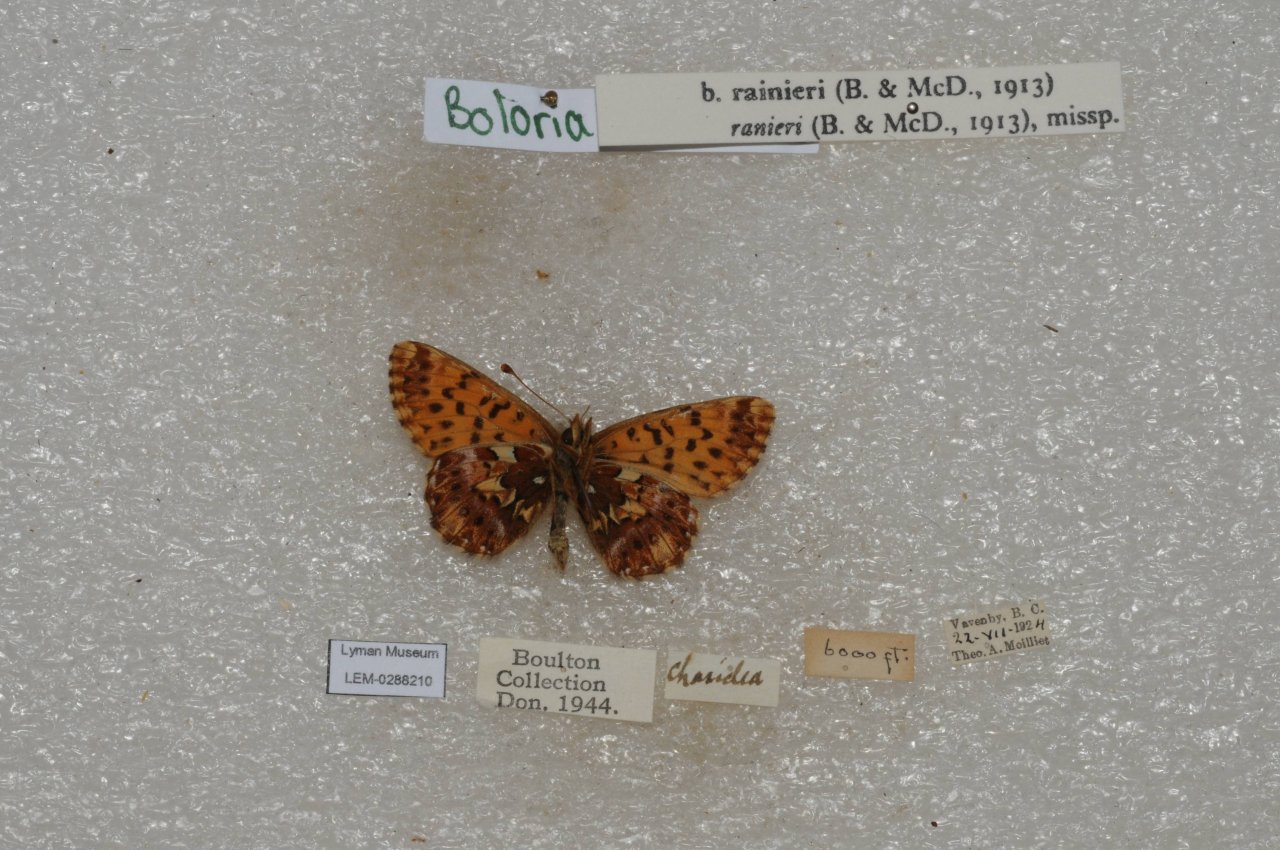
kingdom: Animalia
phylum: Arthropoda
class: Insecta
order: Lepidoptera
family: Nymphalidae
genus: Boloria
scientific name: Boloria chariclea
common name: Arctic Fritillary
